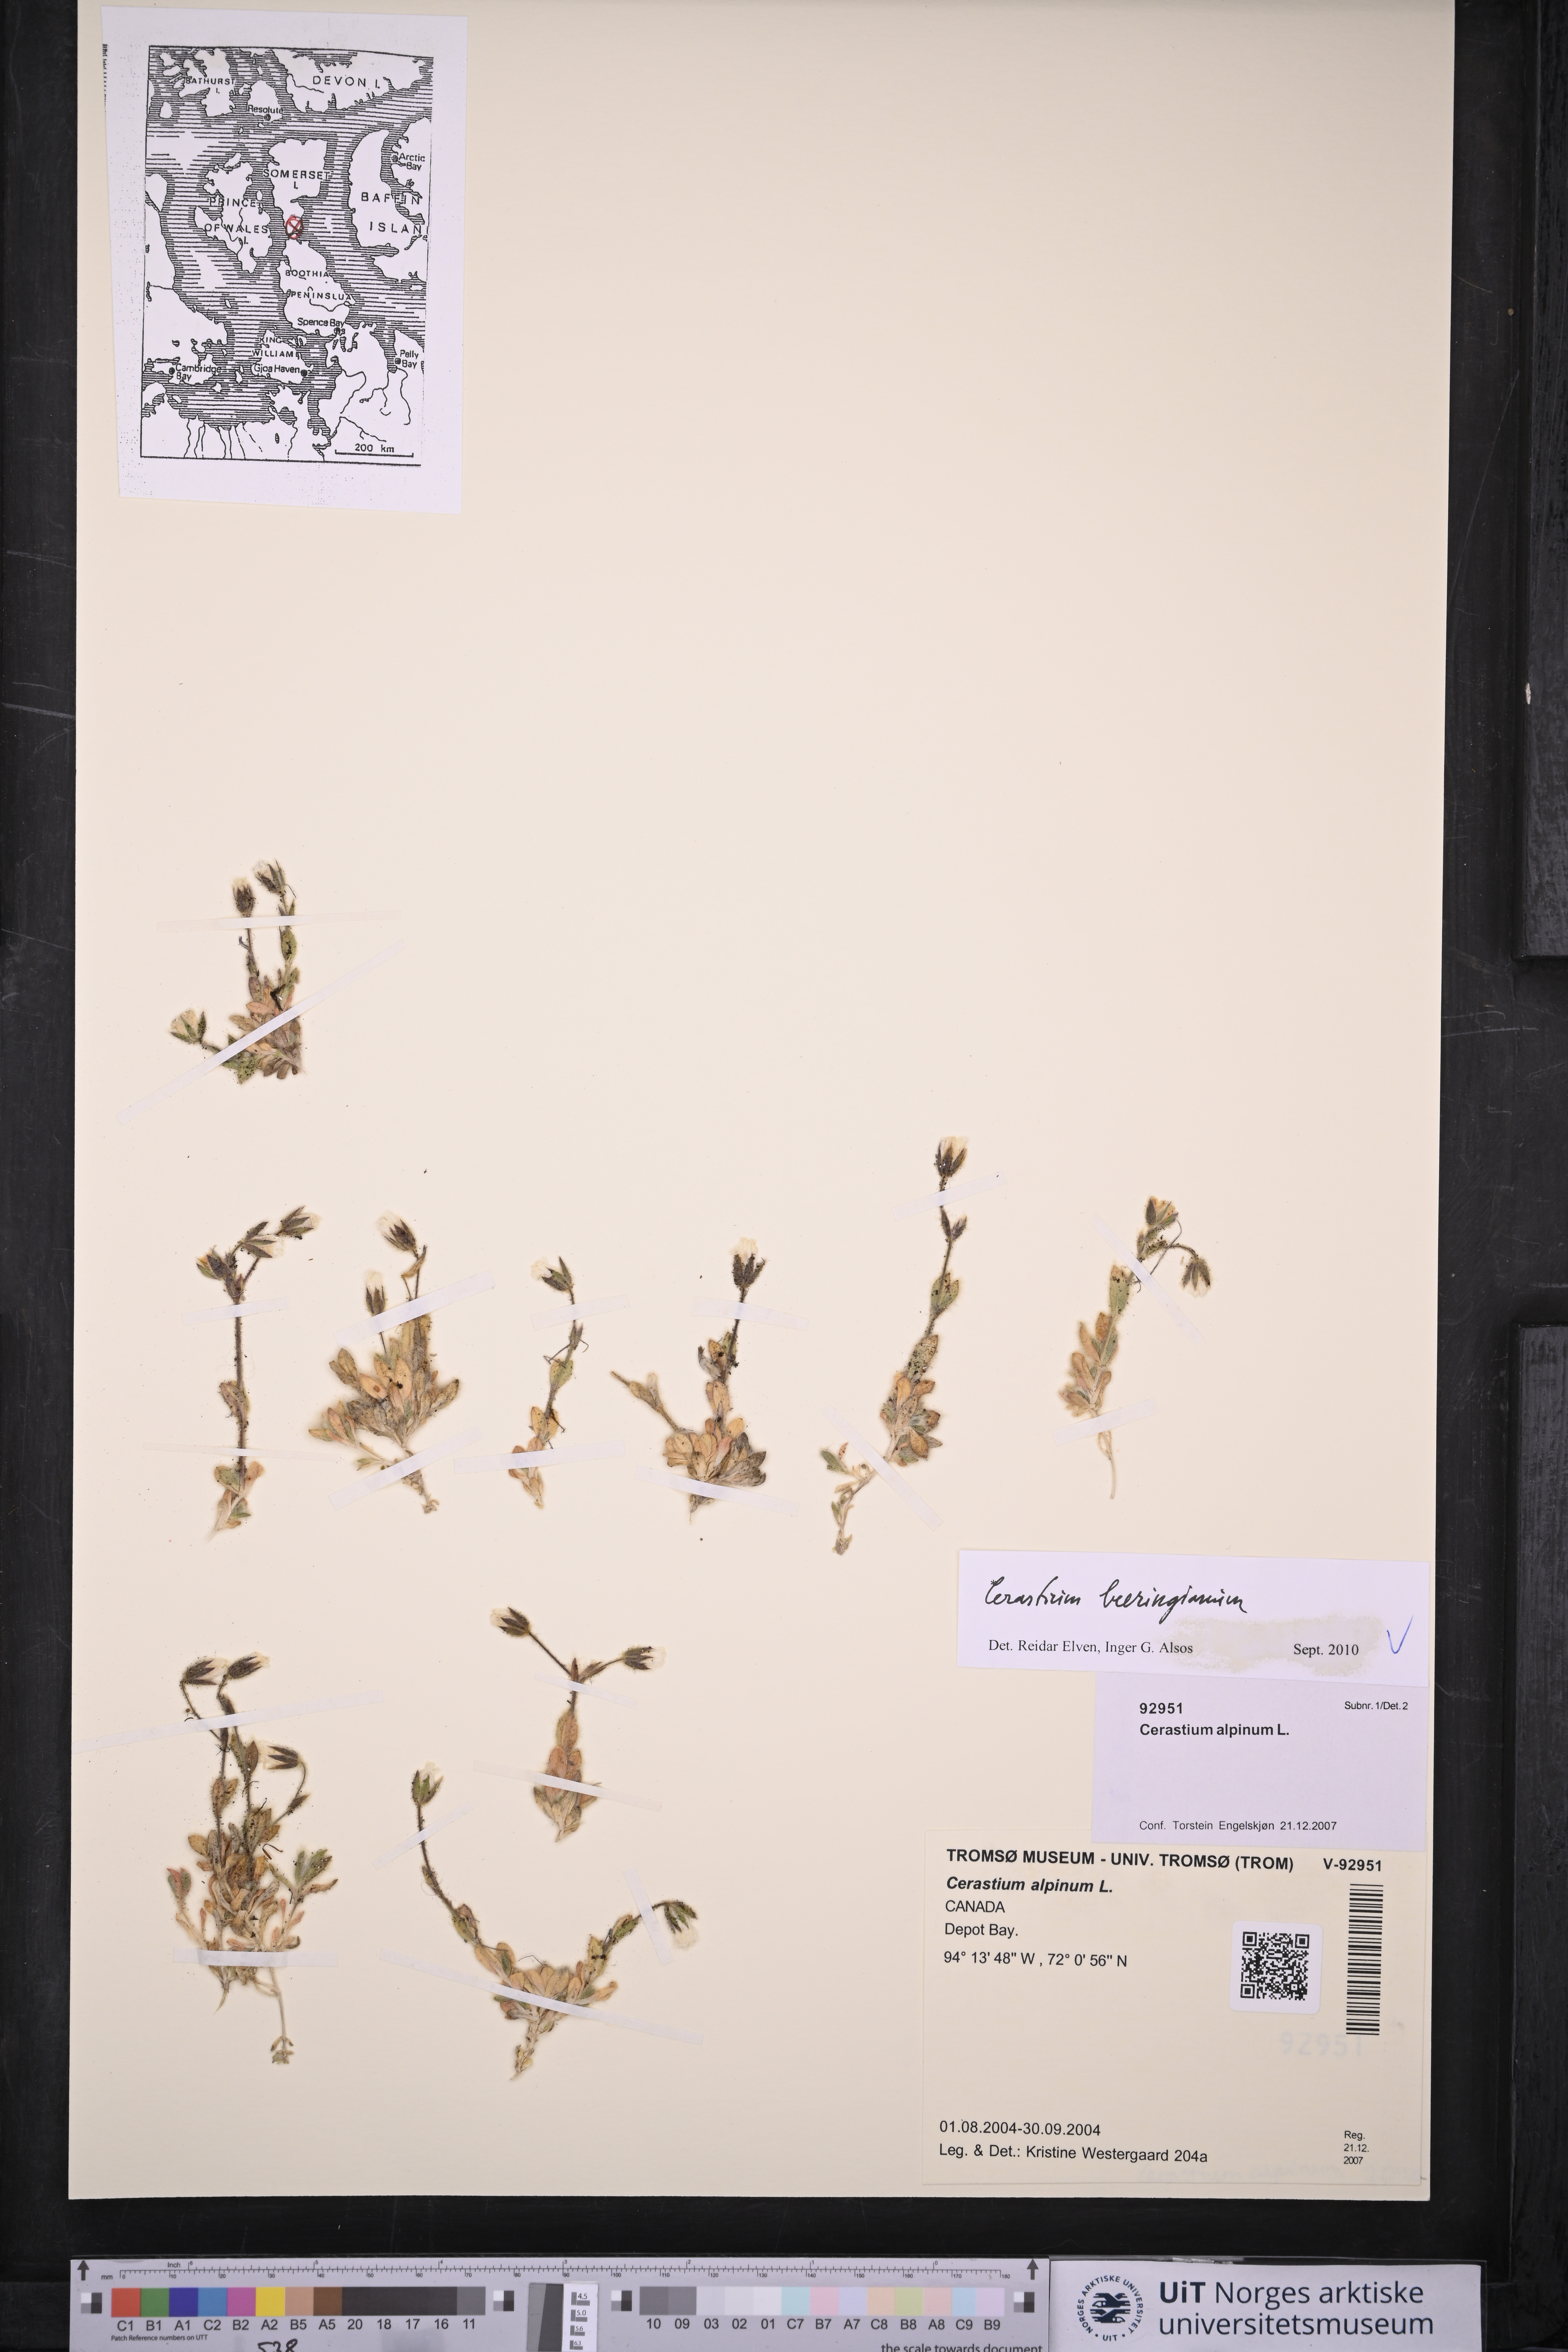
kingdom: Plantae
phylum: Tracheophyta
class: Magnoliopsida
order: Caryophyllales
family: Caryophyllaceae
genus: Cerastium
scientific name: Cerastium beeringianum
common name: Bering mouse-ear chickweed
